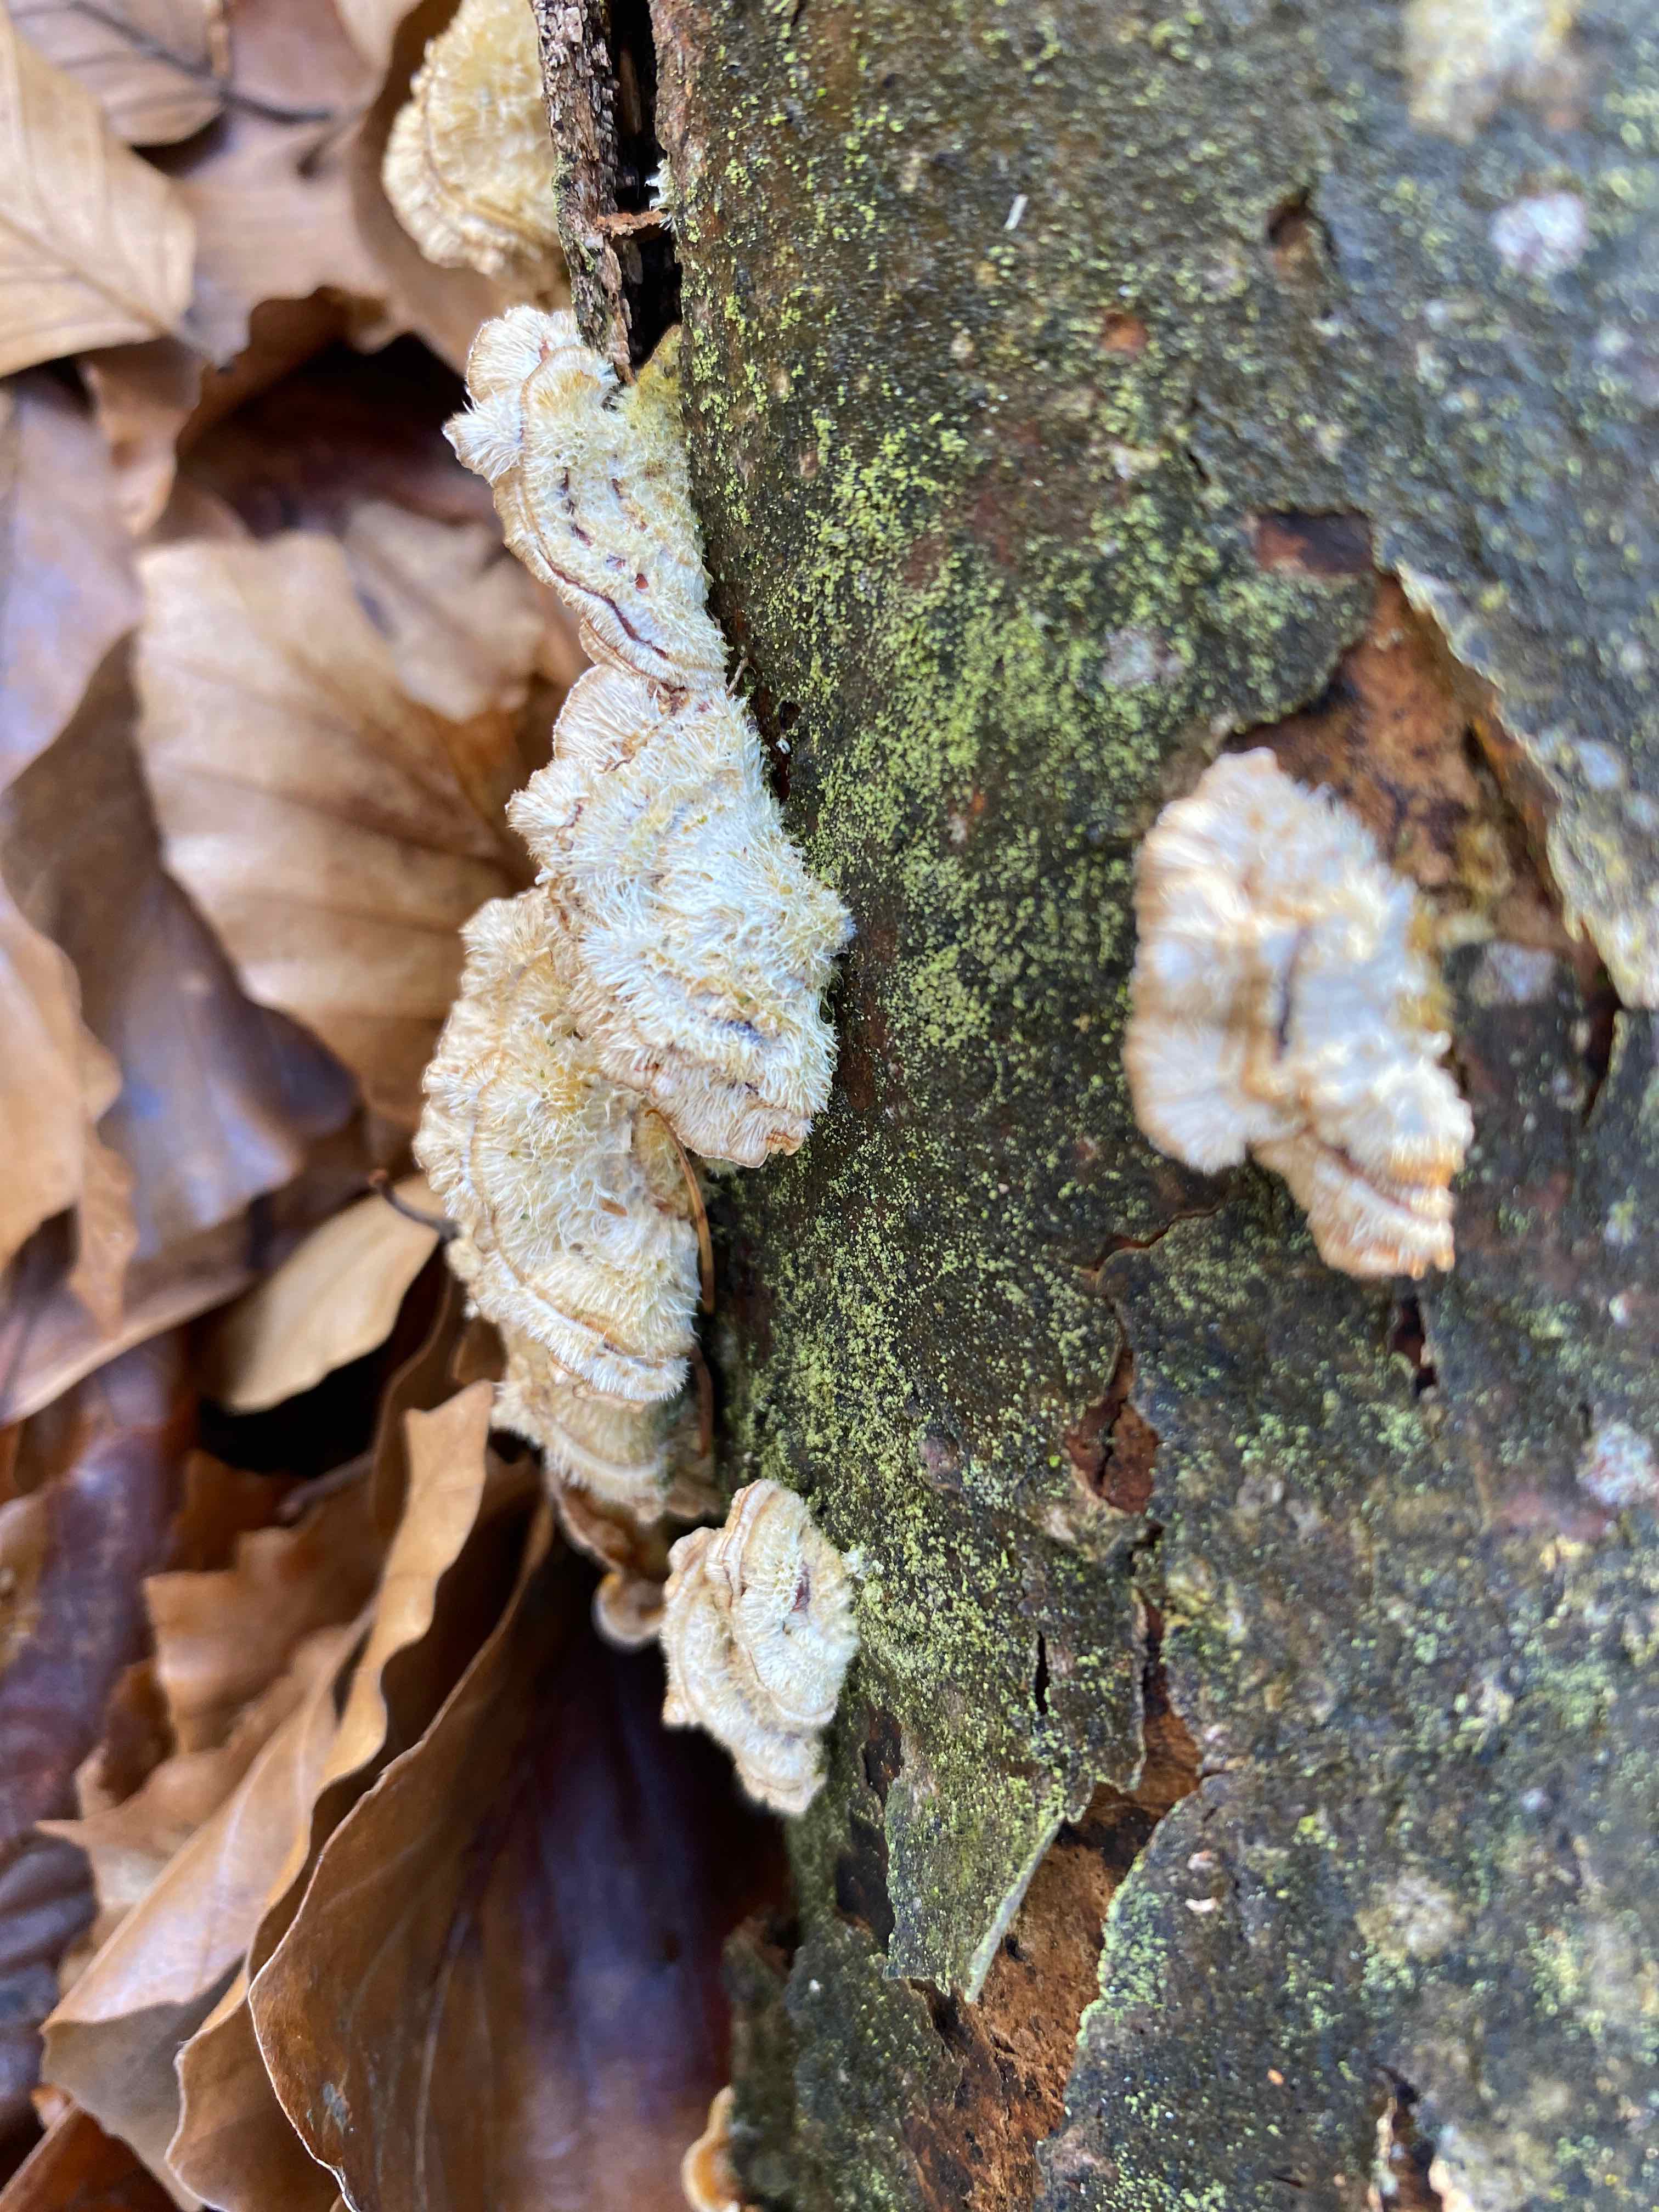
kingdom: Fungi
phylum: Basidiomycota
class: Agaricomycetes
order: Russulales
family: Stereaceae
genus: Stereum
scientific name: Stereum hirsutum
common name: håret lædersvamp
